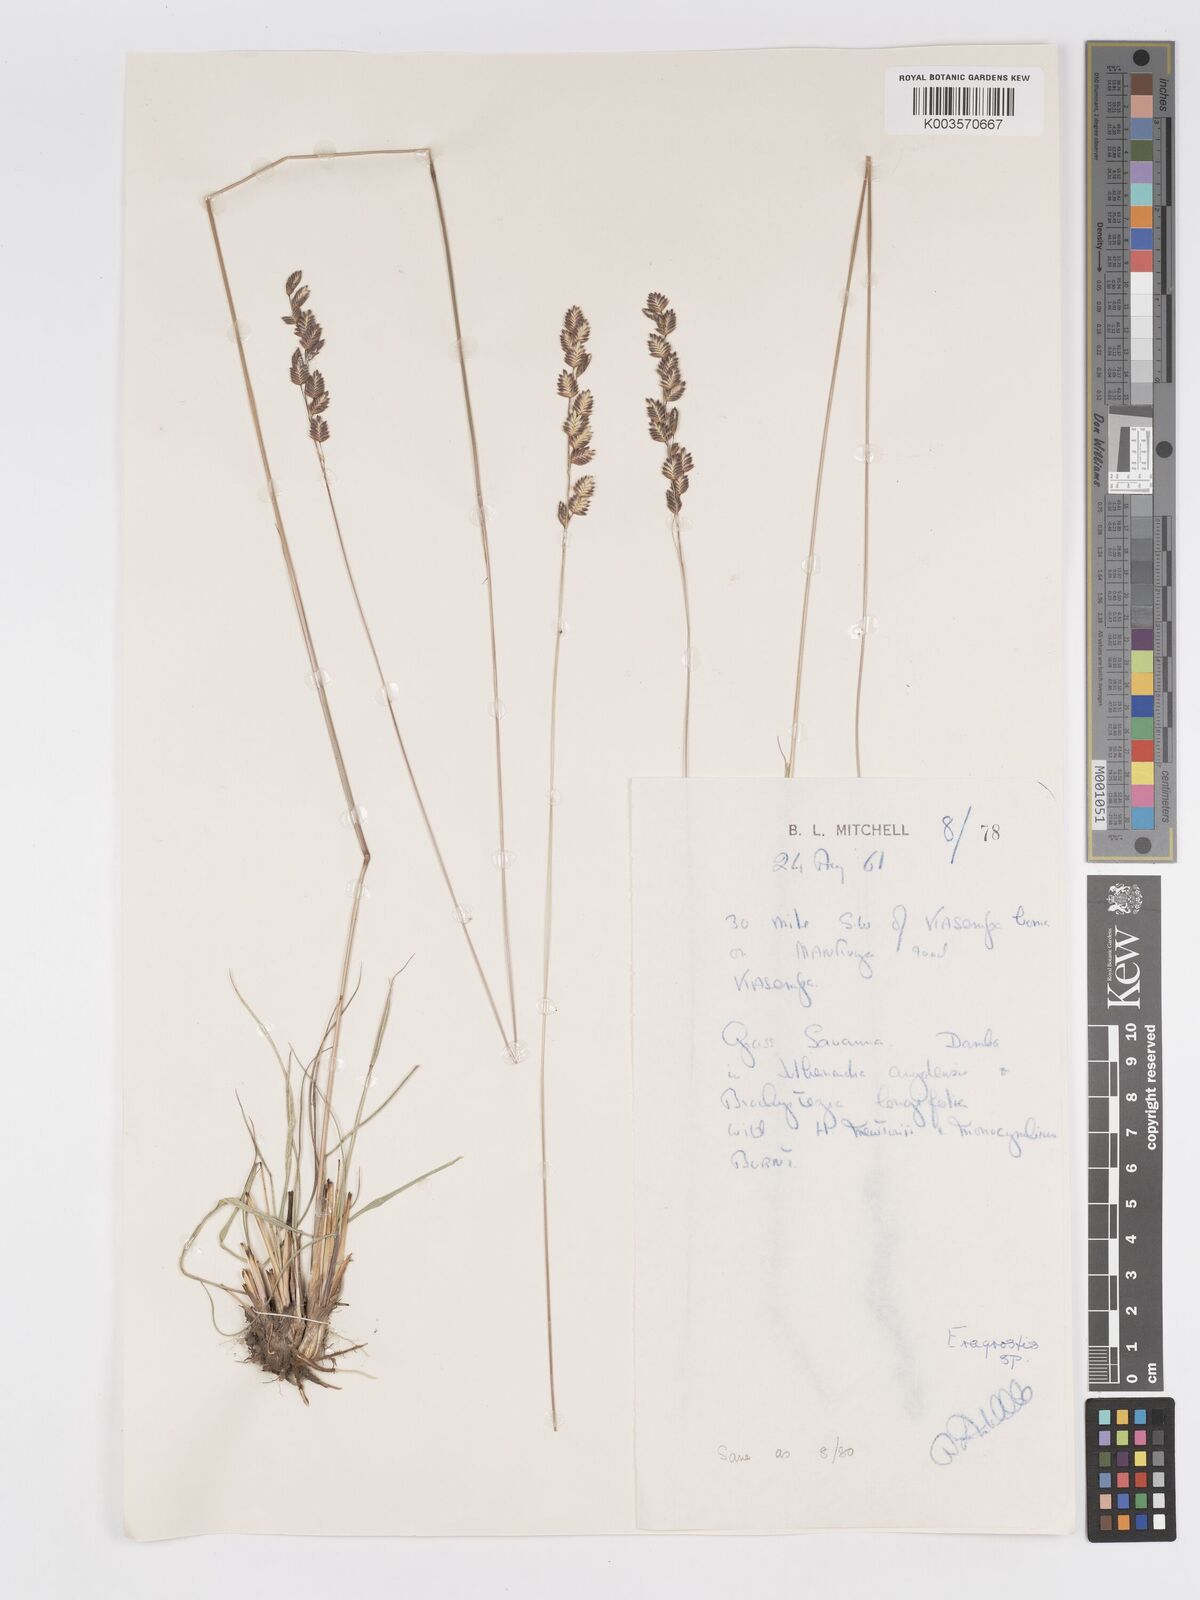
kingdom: Plantae
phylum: Tracheophyta
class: Liliopsida
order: Poales
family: Poaceae
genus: Eragrostis
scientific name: Eragrostis capensis
